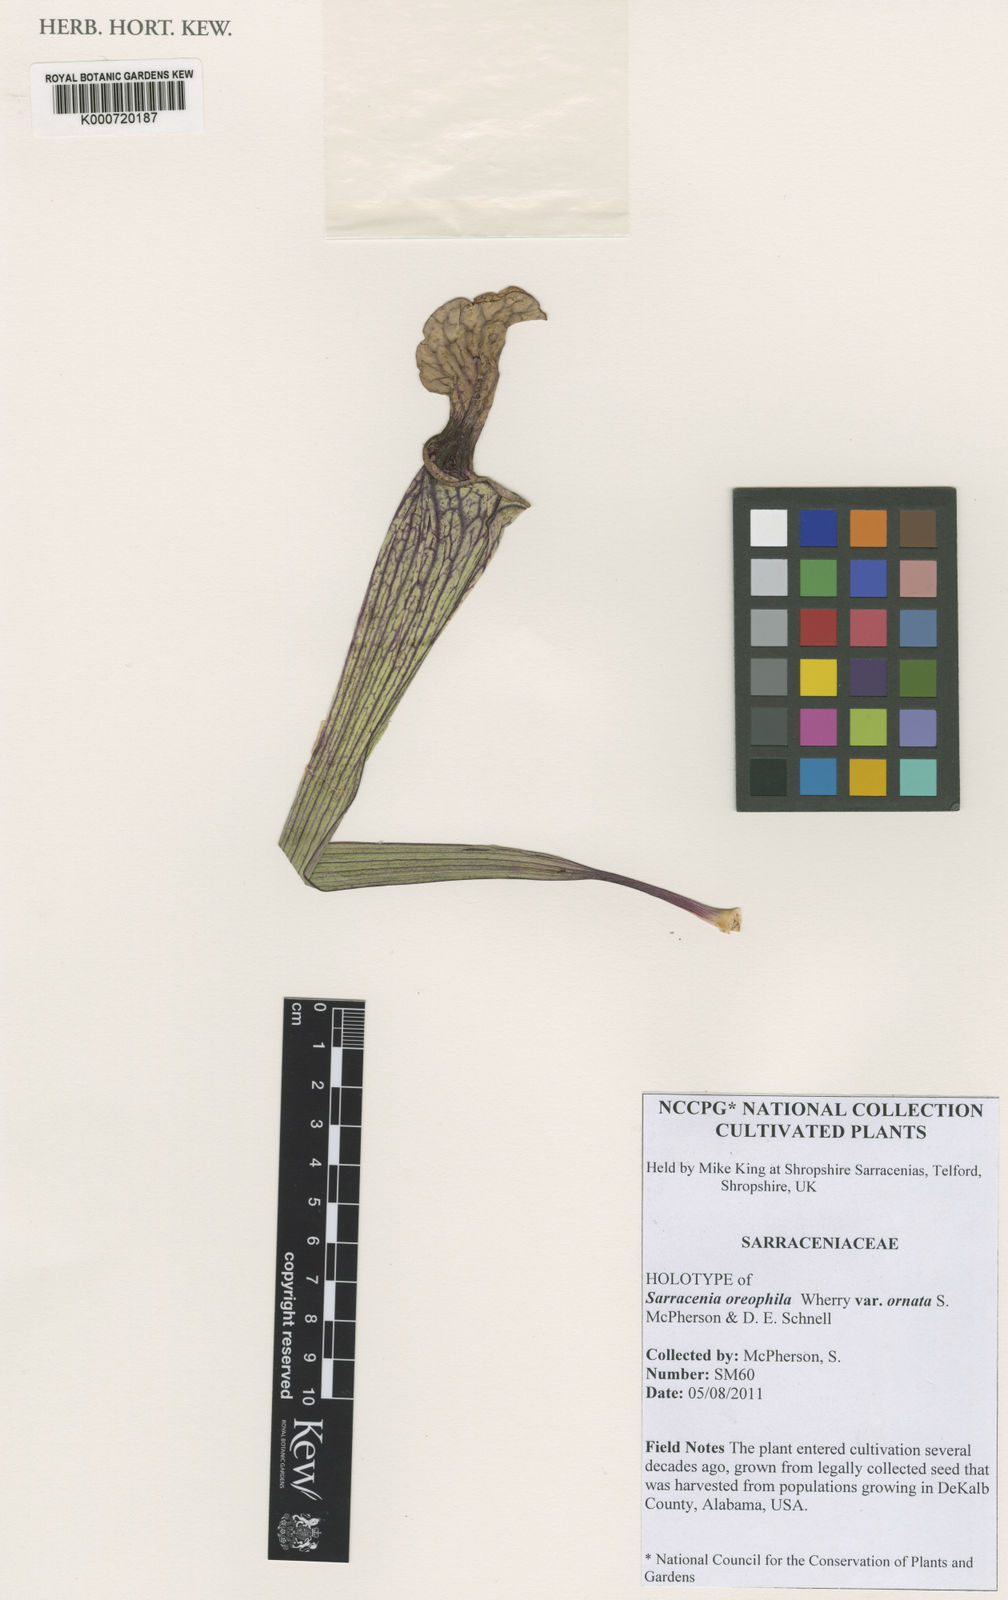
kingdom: Plantae
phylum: Tracheophyta
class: Magnoliopsida
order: Ericales
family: Sarraceniaceae
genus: Sarracenia
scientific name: Sarracenia oreophila
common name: Green pitcherplant
